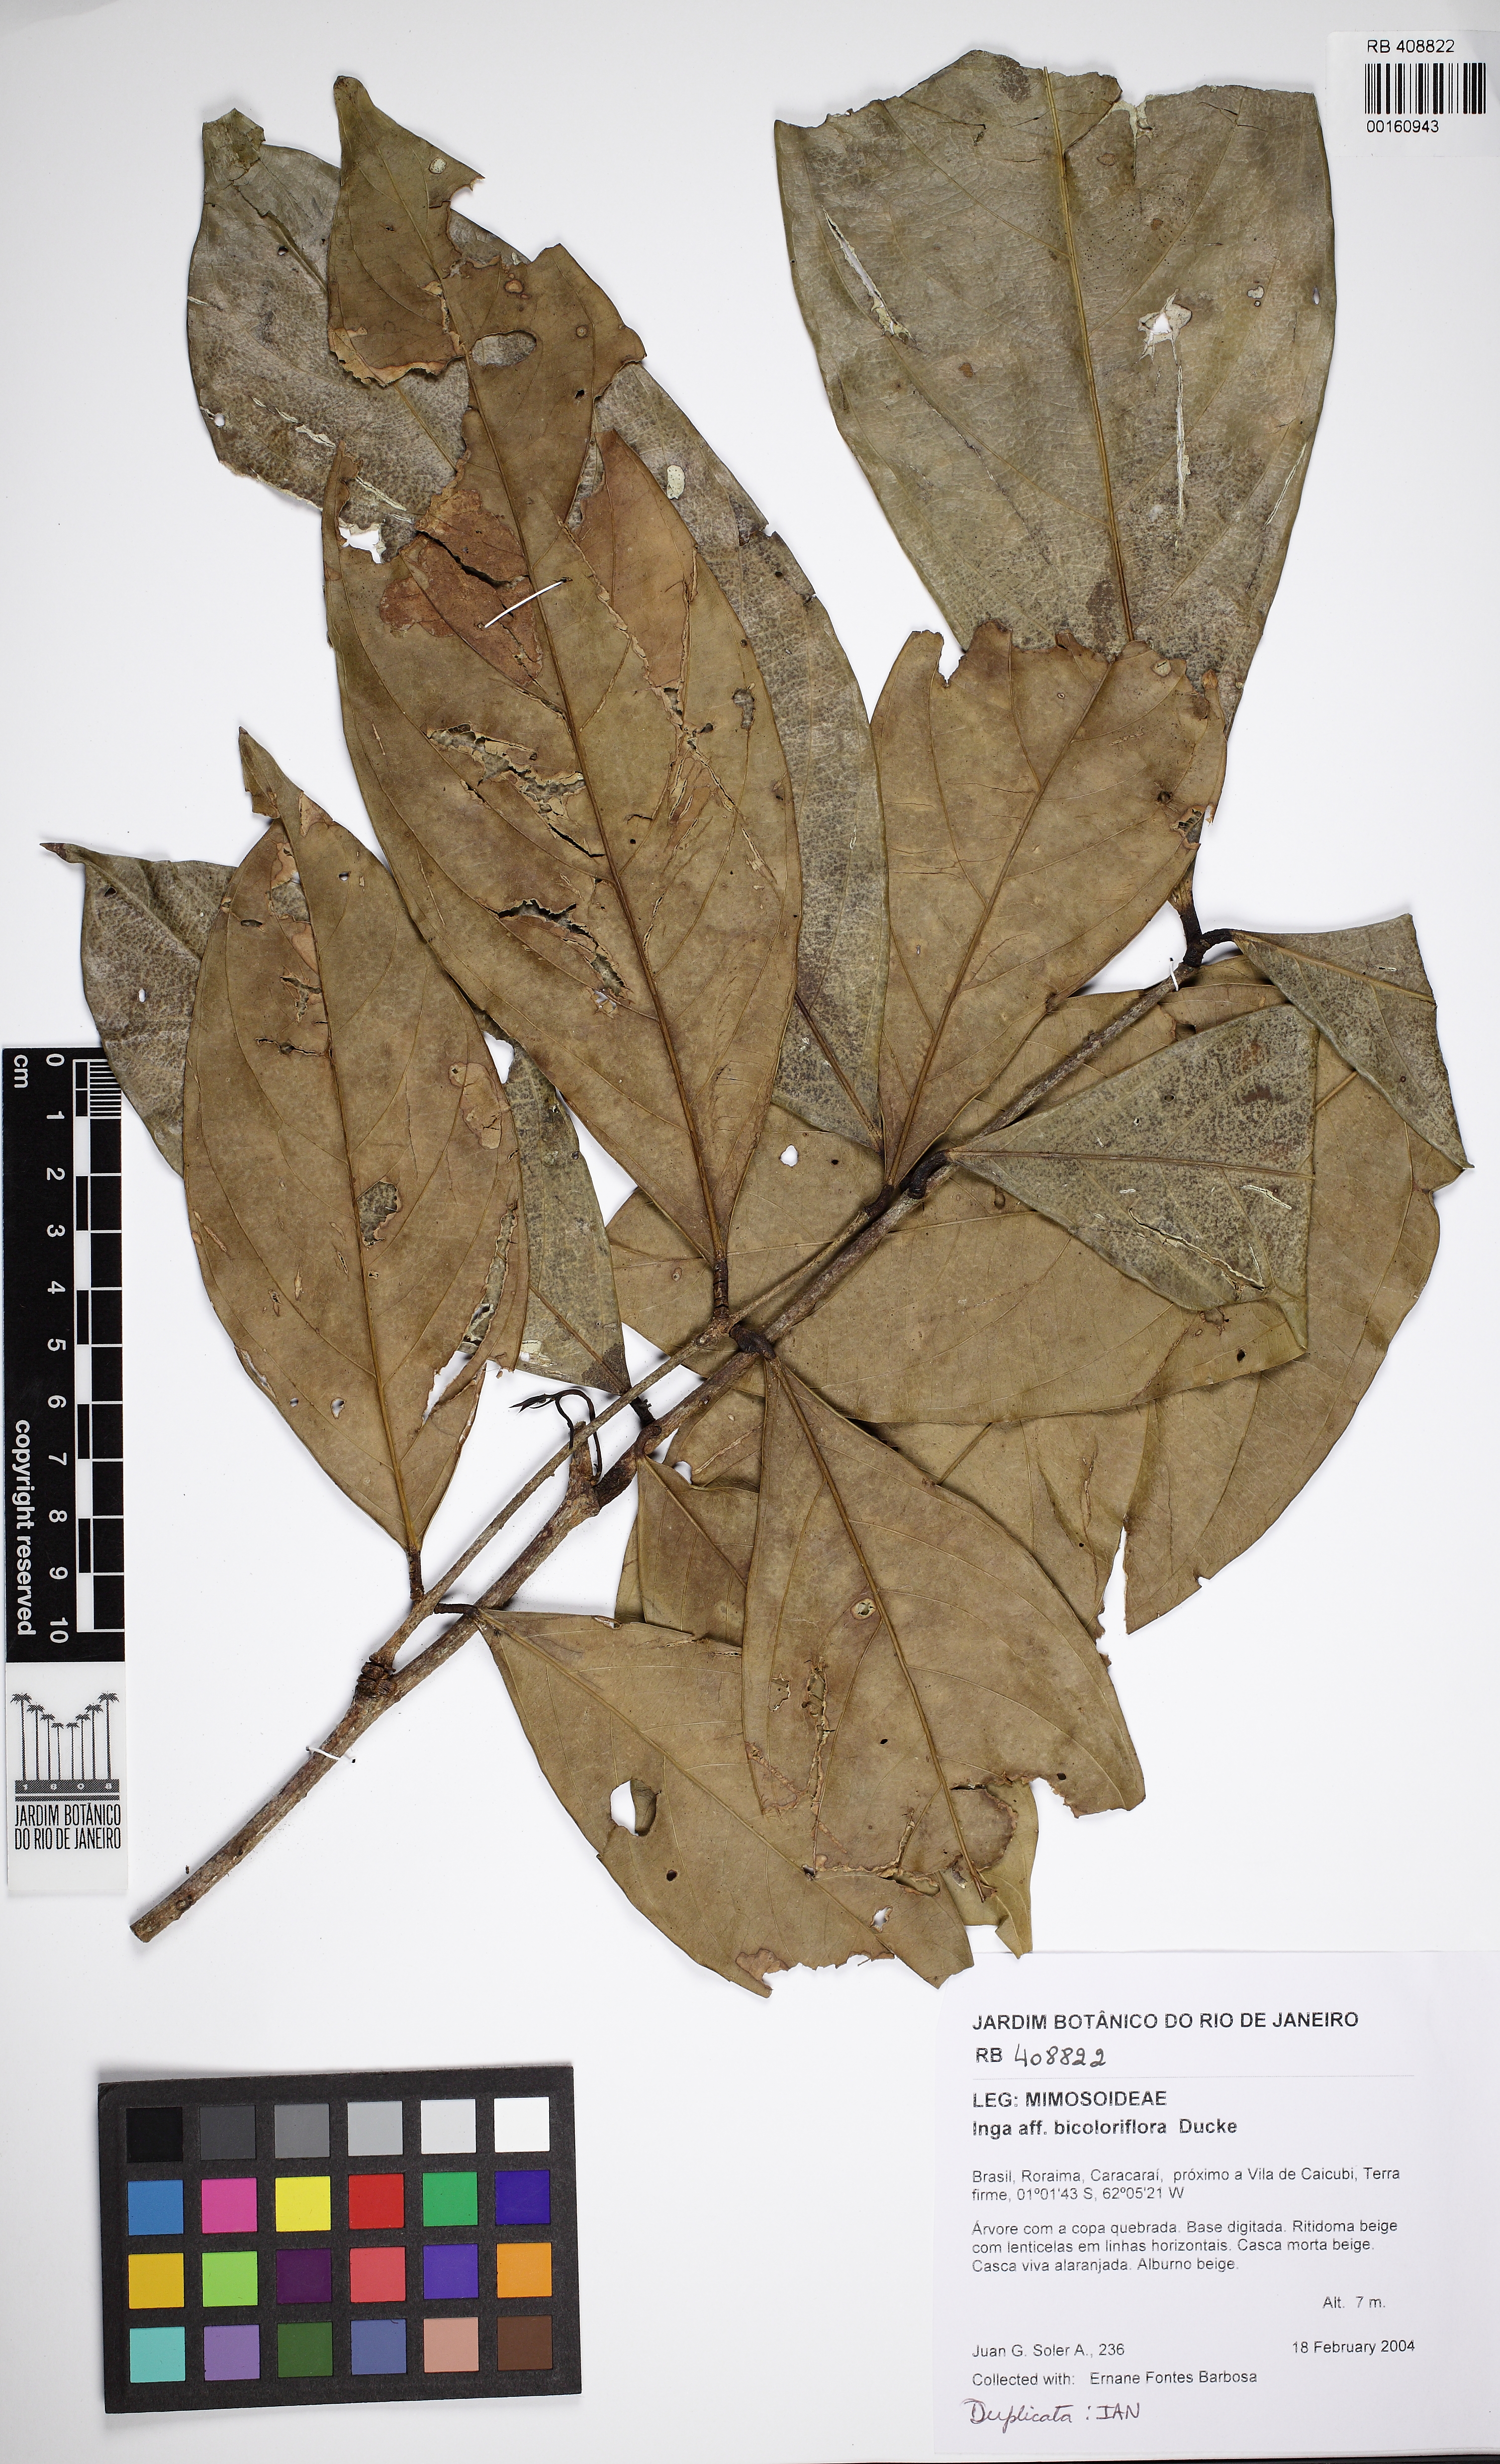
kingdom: Plantae
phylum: Tracheophyta
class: Magnoliopsida
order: Fabales
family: Fabaceae
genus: Inga
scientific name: Inga capitata
